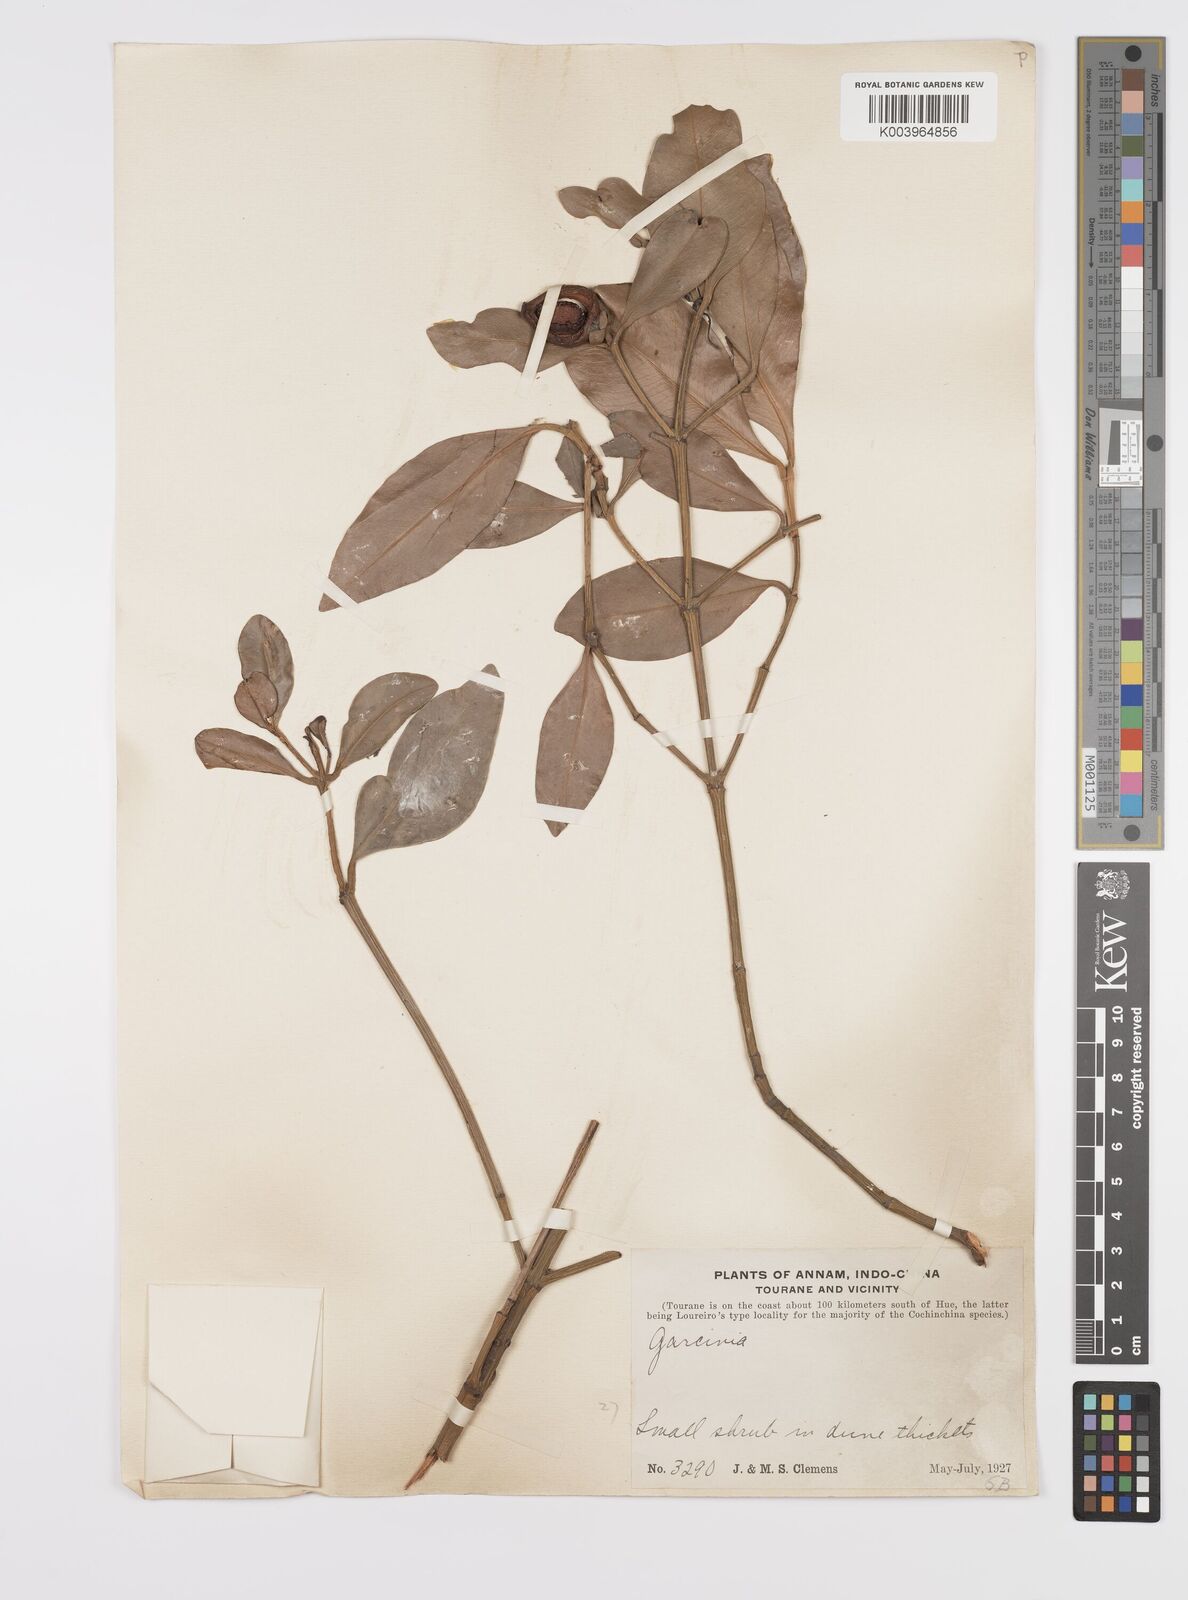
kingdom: Plantae
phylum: Tracheophyta
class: Magnoliopsida
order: Malpighiales
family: Clusiaceae
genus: Garcinia
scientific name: Garcinia
